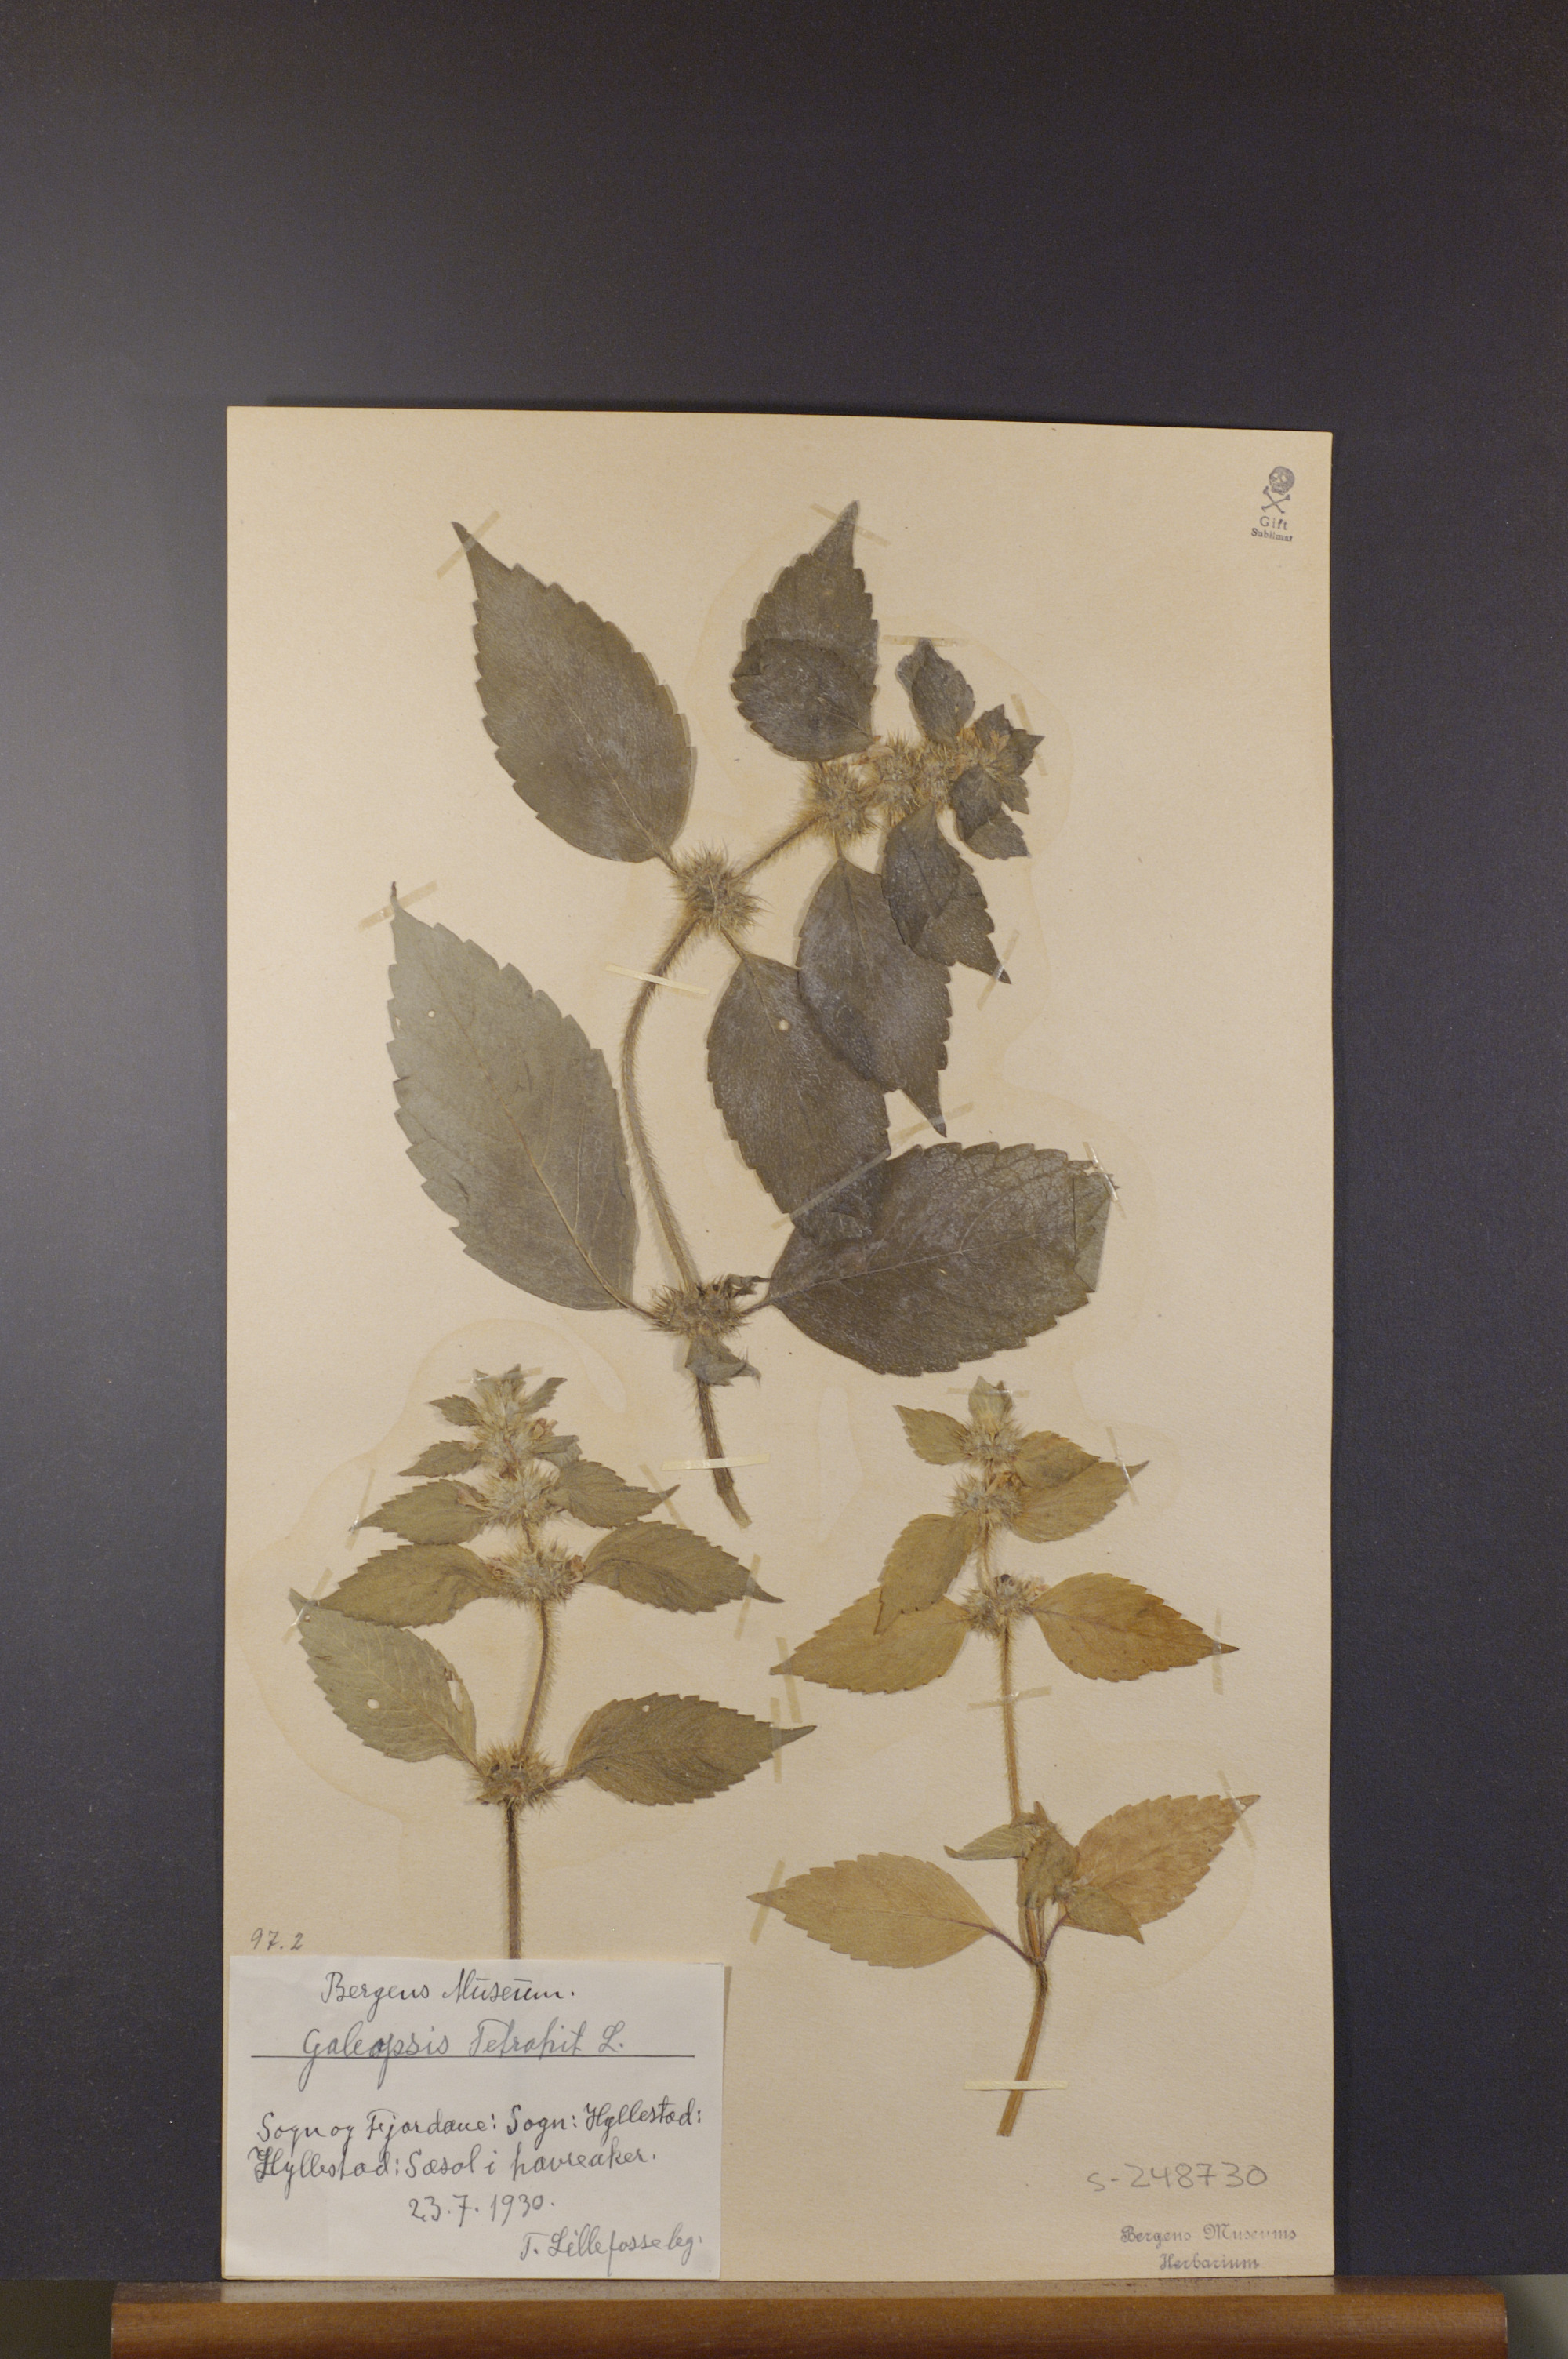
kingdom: Plantae
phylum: Tracheophyta
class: Magnoliopsida
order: Lamiales
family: Lamiaceae
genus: Galeopsis
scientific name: Galeopsis tetrahit
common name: Common hemp-nettle
